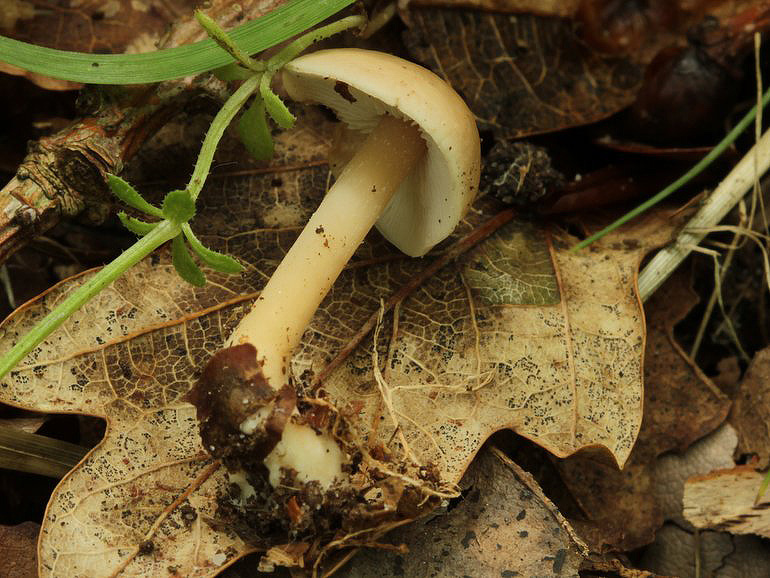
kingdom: Fungi
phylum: Basidiomycota
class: Agaricomycetes
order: Agaricales
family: Omphalotaceae
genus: Gymnopus
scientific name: Gymnopus aquosus
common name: bleg fladhat
